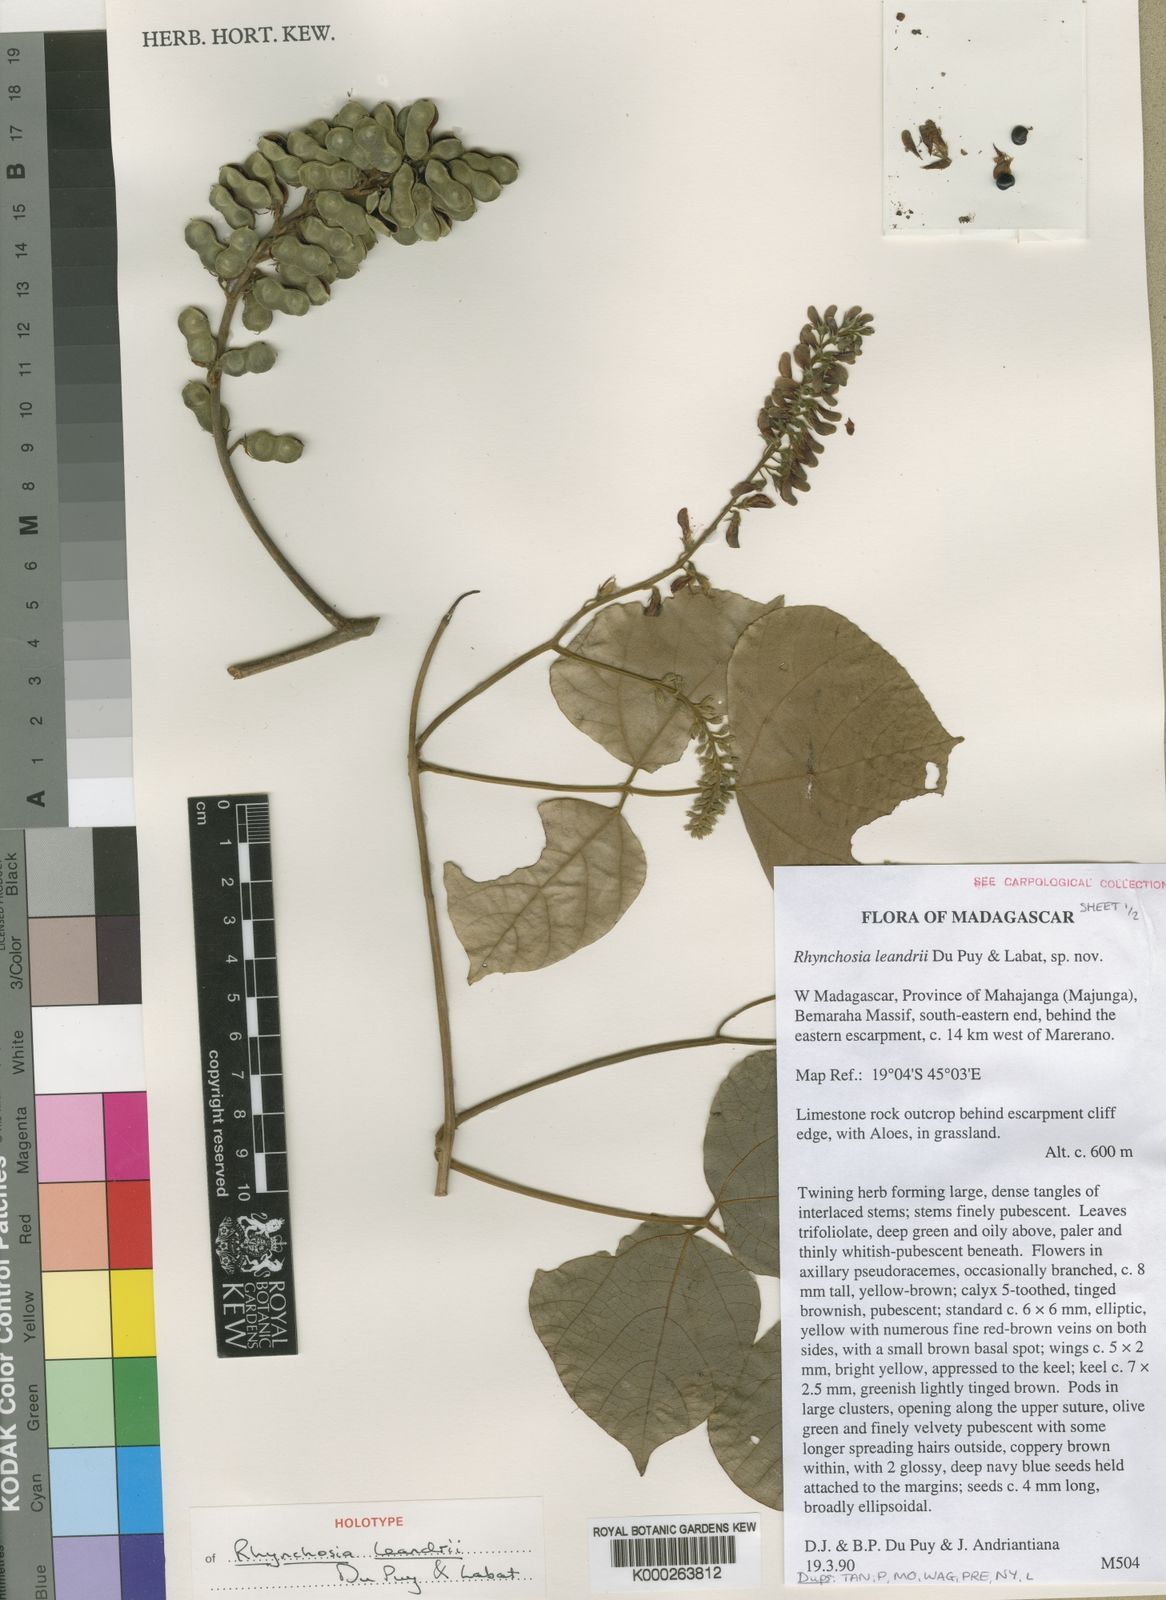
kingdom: Plantae
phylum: Tracheophyta
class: Magnoliopsida
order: Fabales
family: Fabaceae
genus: Rhynchosia
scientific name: Rhynchosia leandrii
